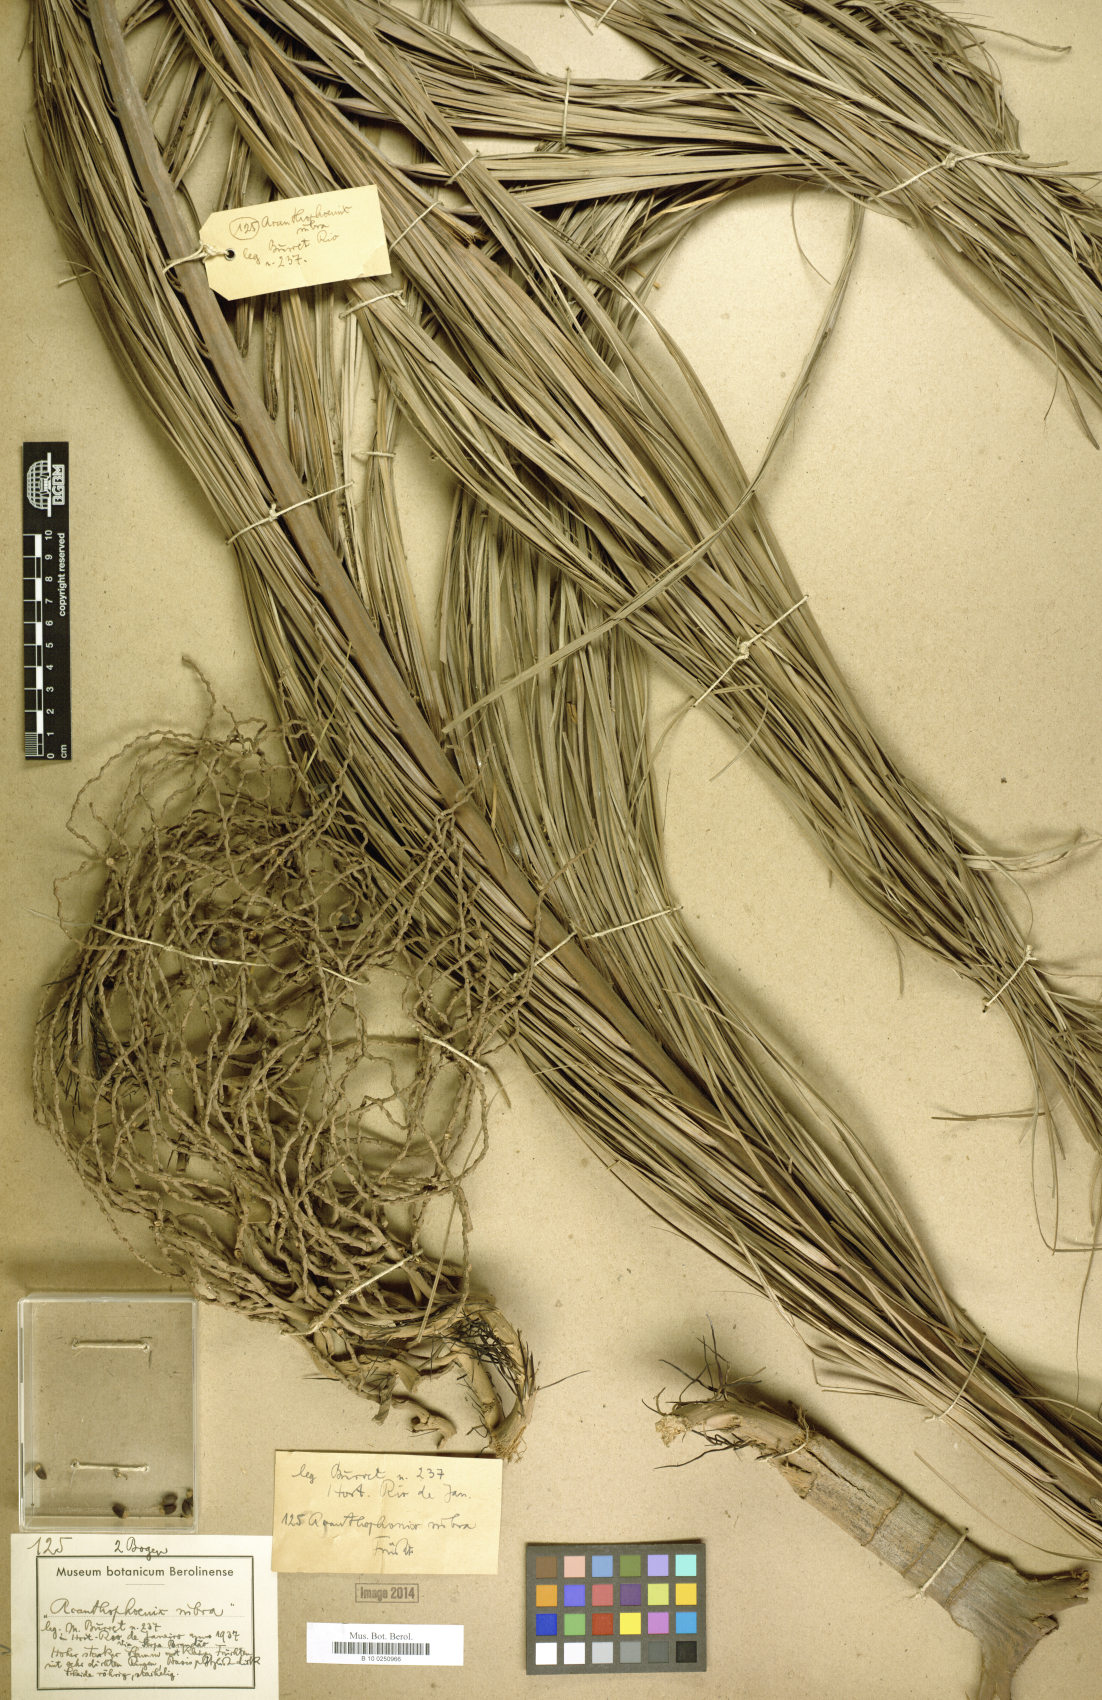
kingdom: Plantae
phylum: Tracheophyta
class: Liliopsida
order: Arecales
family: Arecaceae
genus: Acanthophoenix
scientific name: Acanthophoenix rubra
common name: Barbel palm
